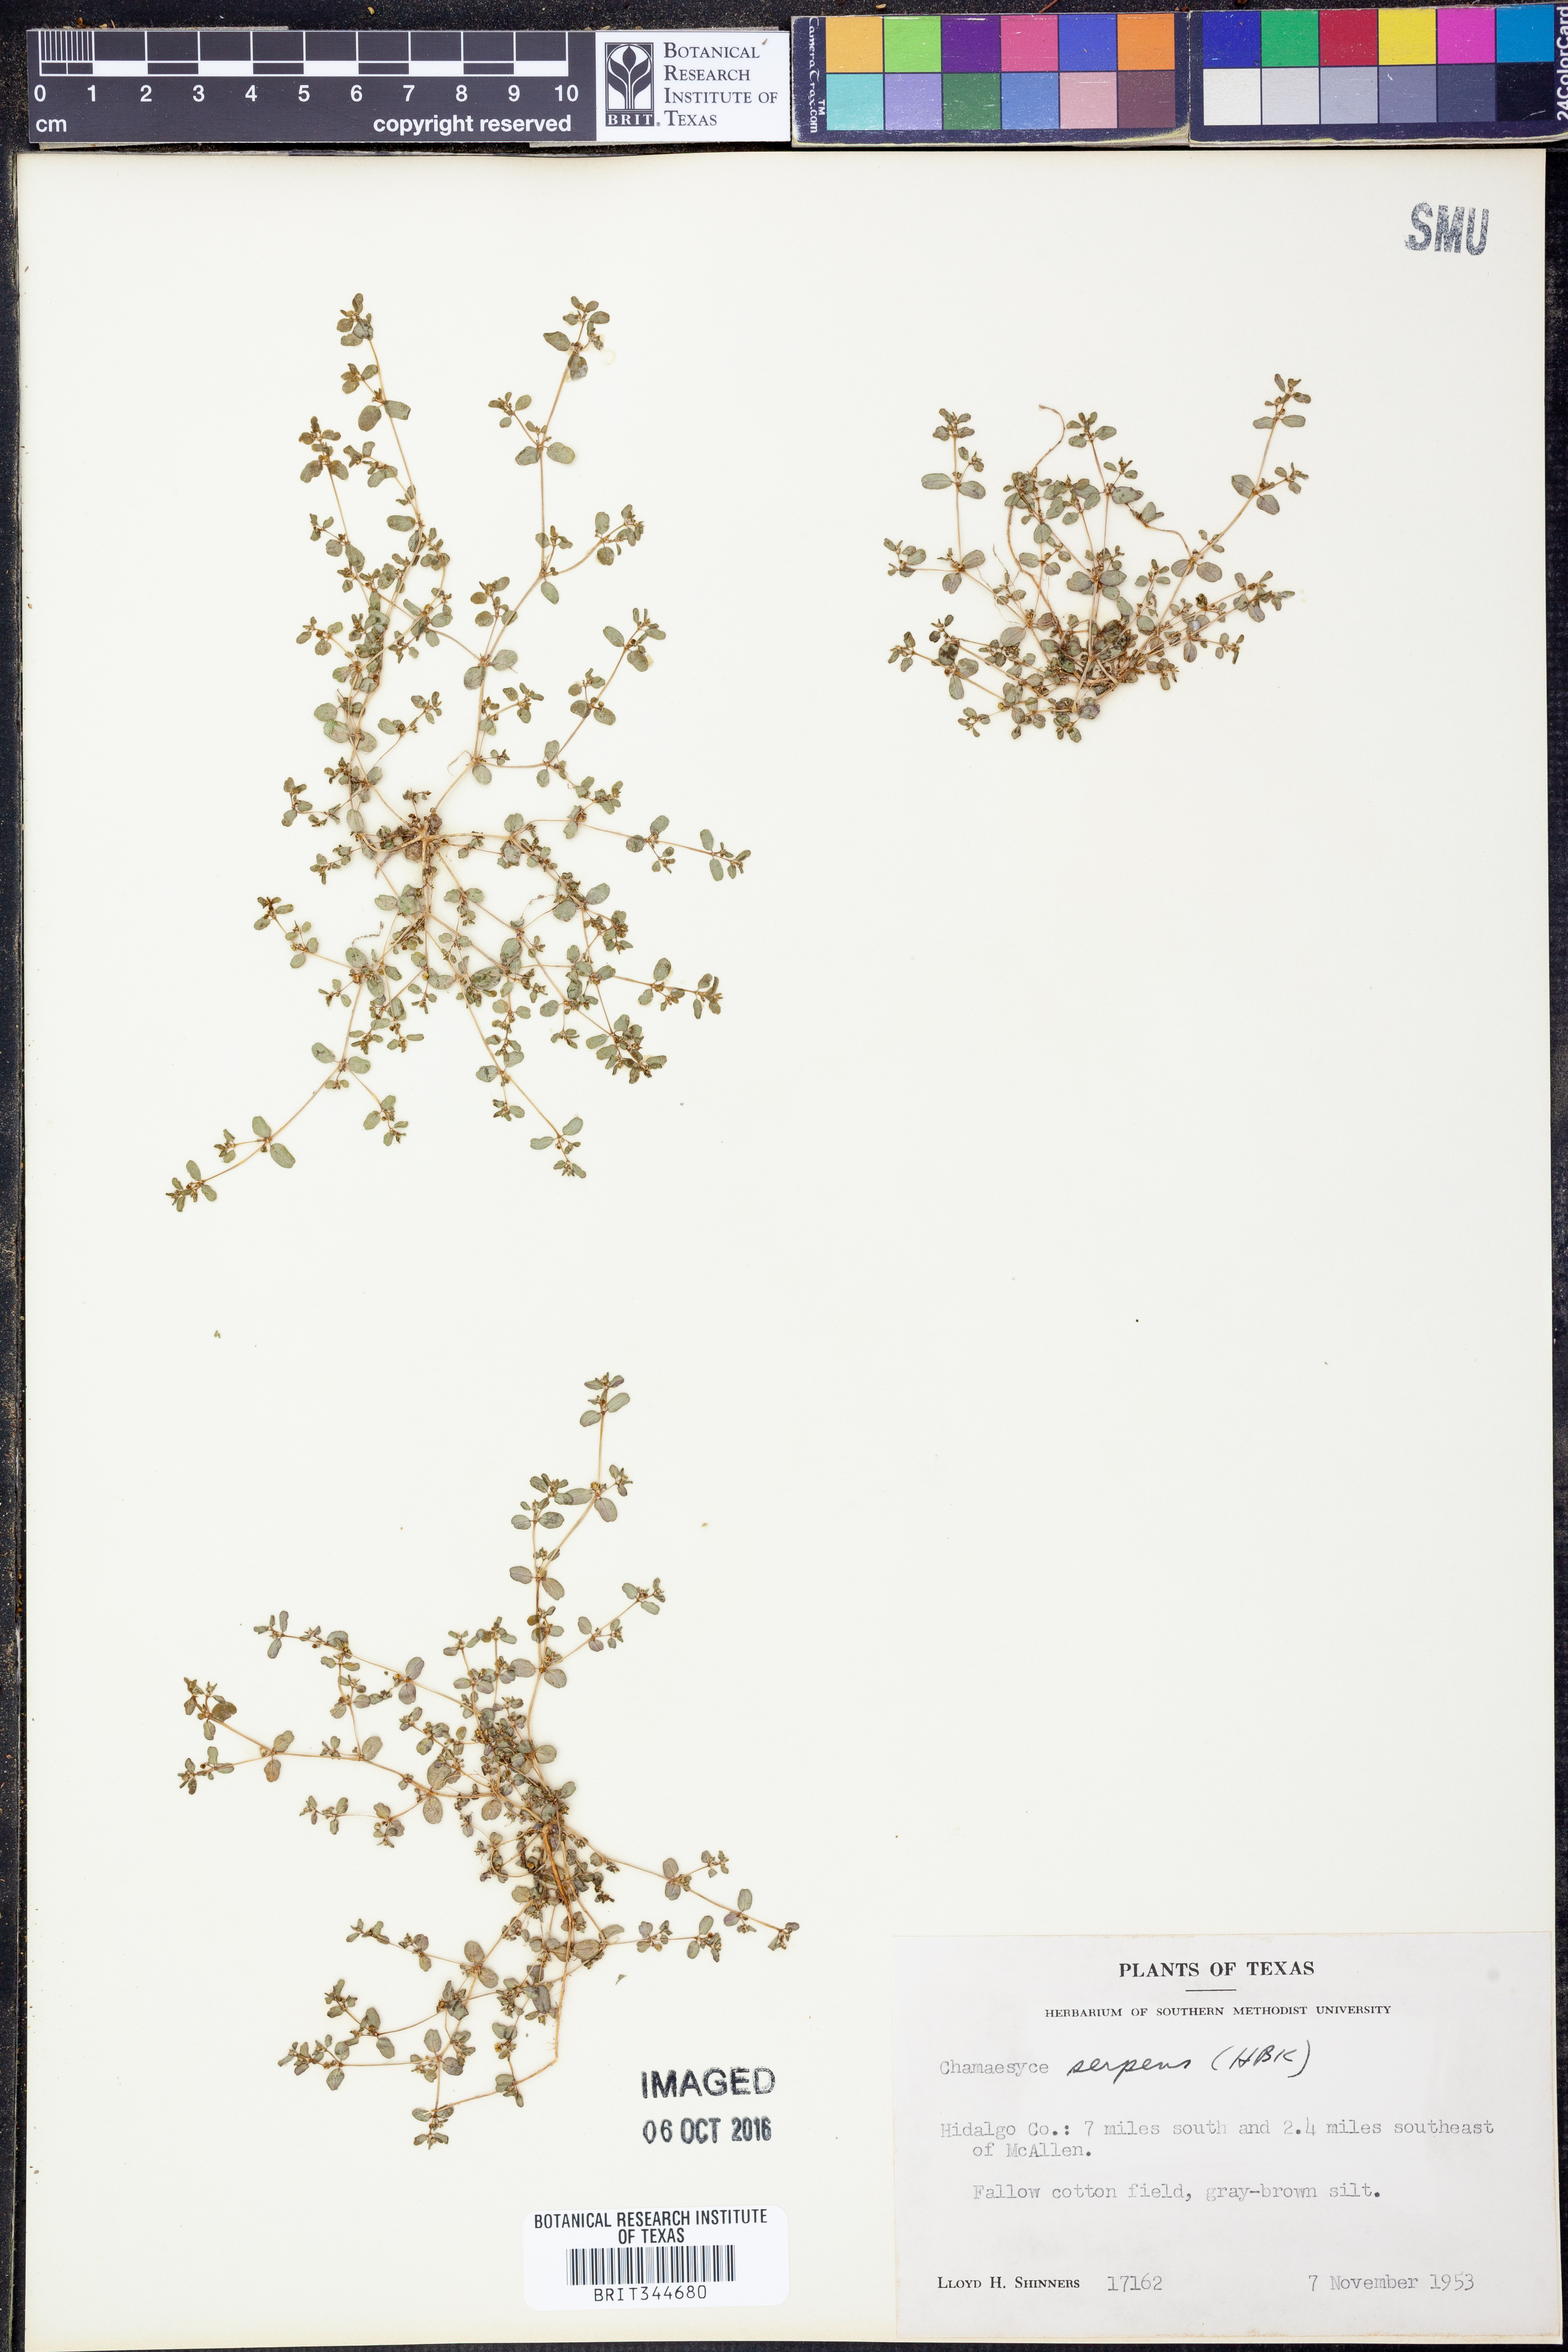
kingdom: Plantae
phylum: Tracheophyta
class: Magnoliopsida
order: Malpighiales
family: Euphorbiaceae
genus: Euphorbia
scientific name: Euphorbia serpens
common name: Matted sandmat
